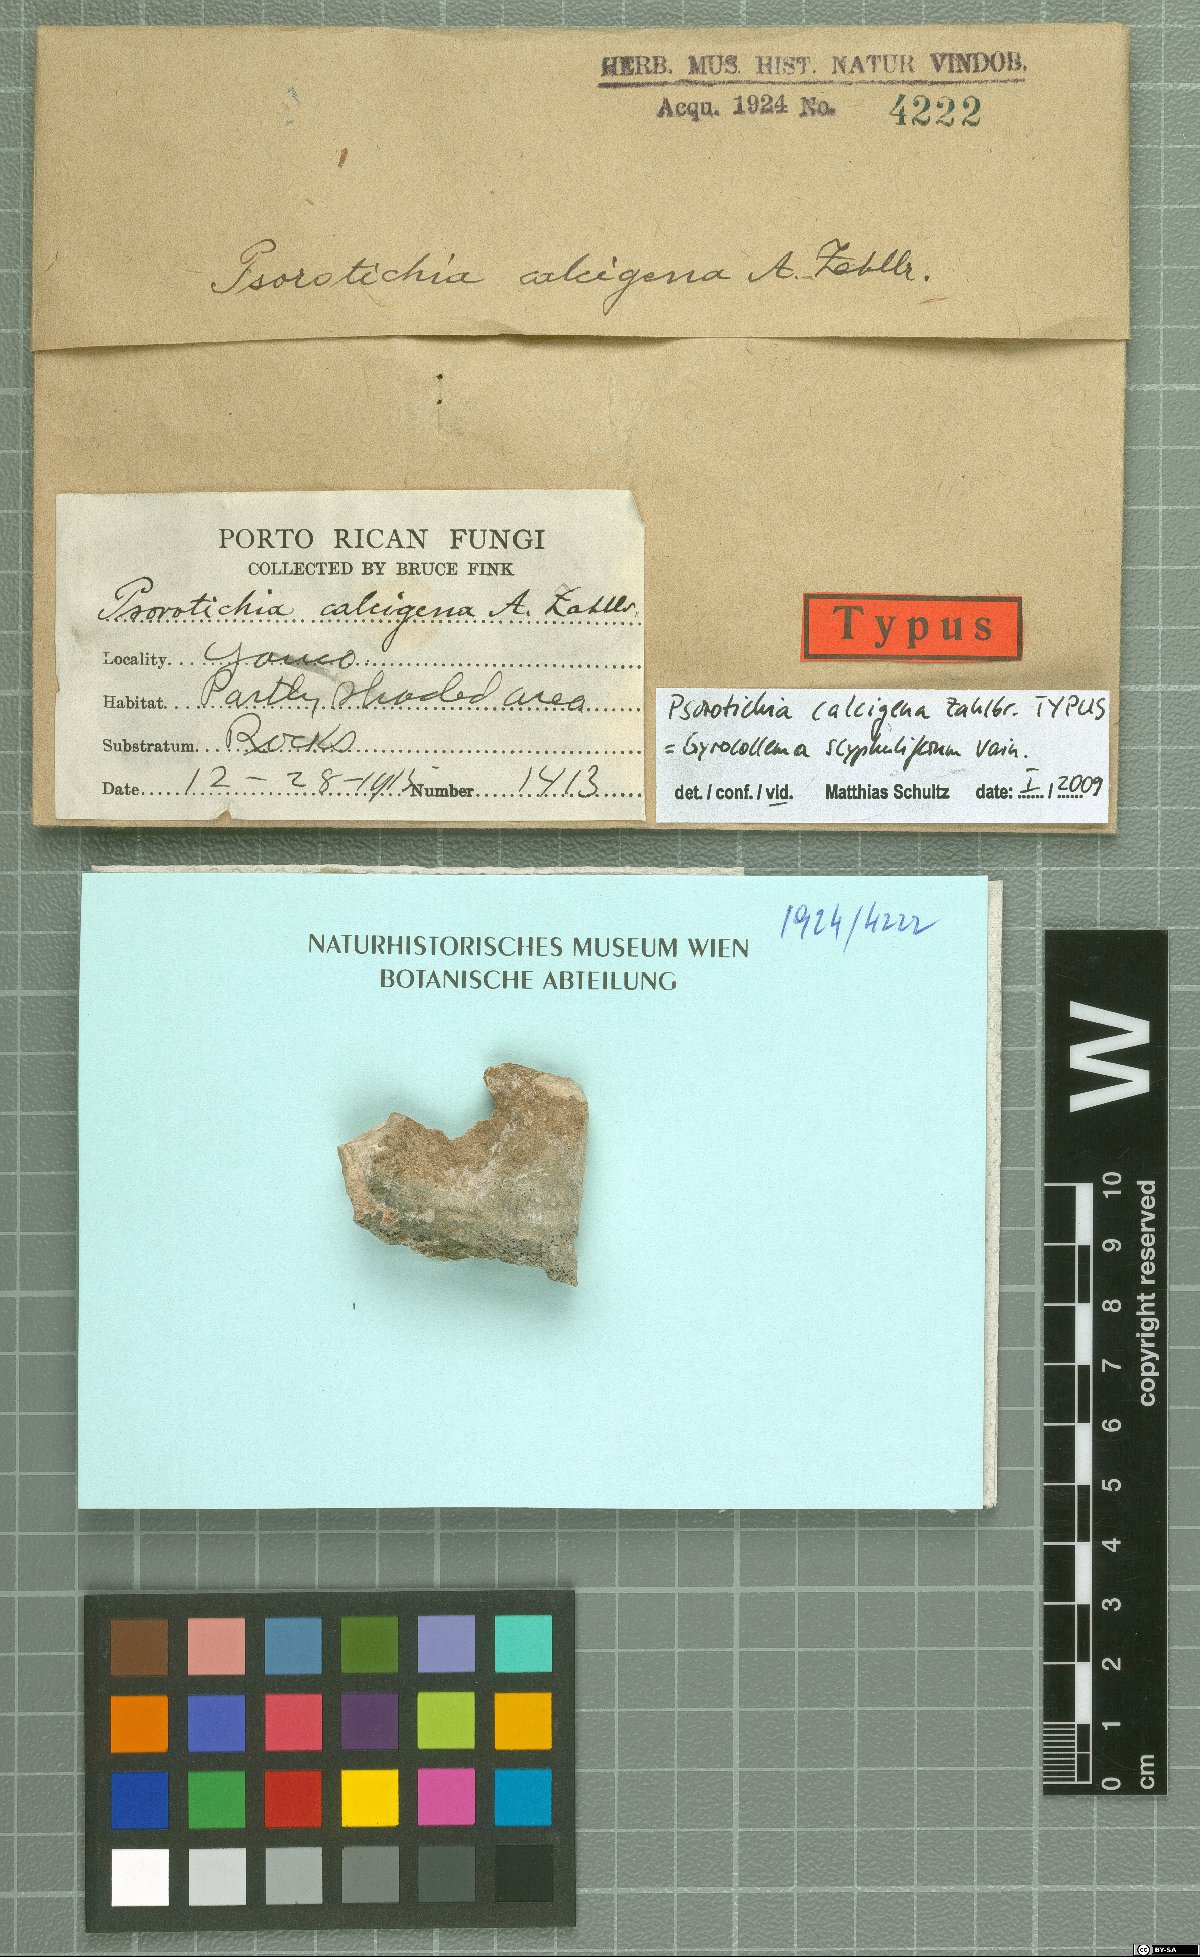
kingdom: Fungi
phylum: Ascomycota
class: Lichinomycetes
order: Lichinales
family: Lichinaceae
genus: Psorotichia
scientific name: Psorotichia
